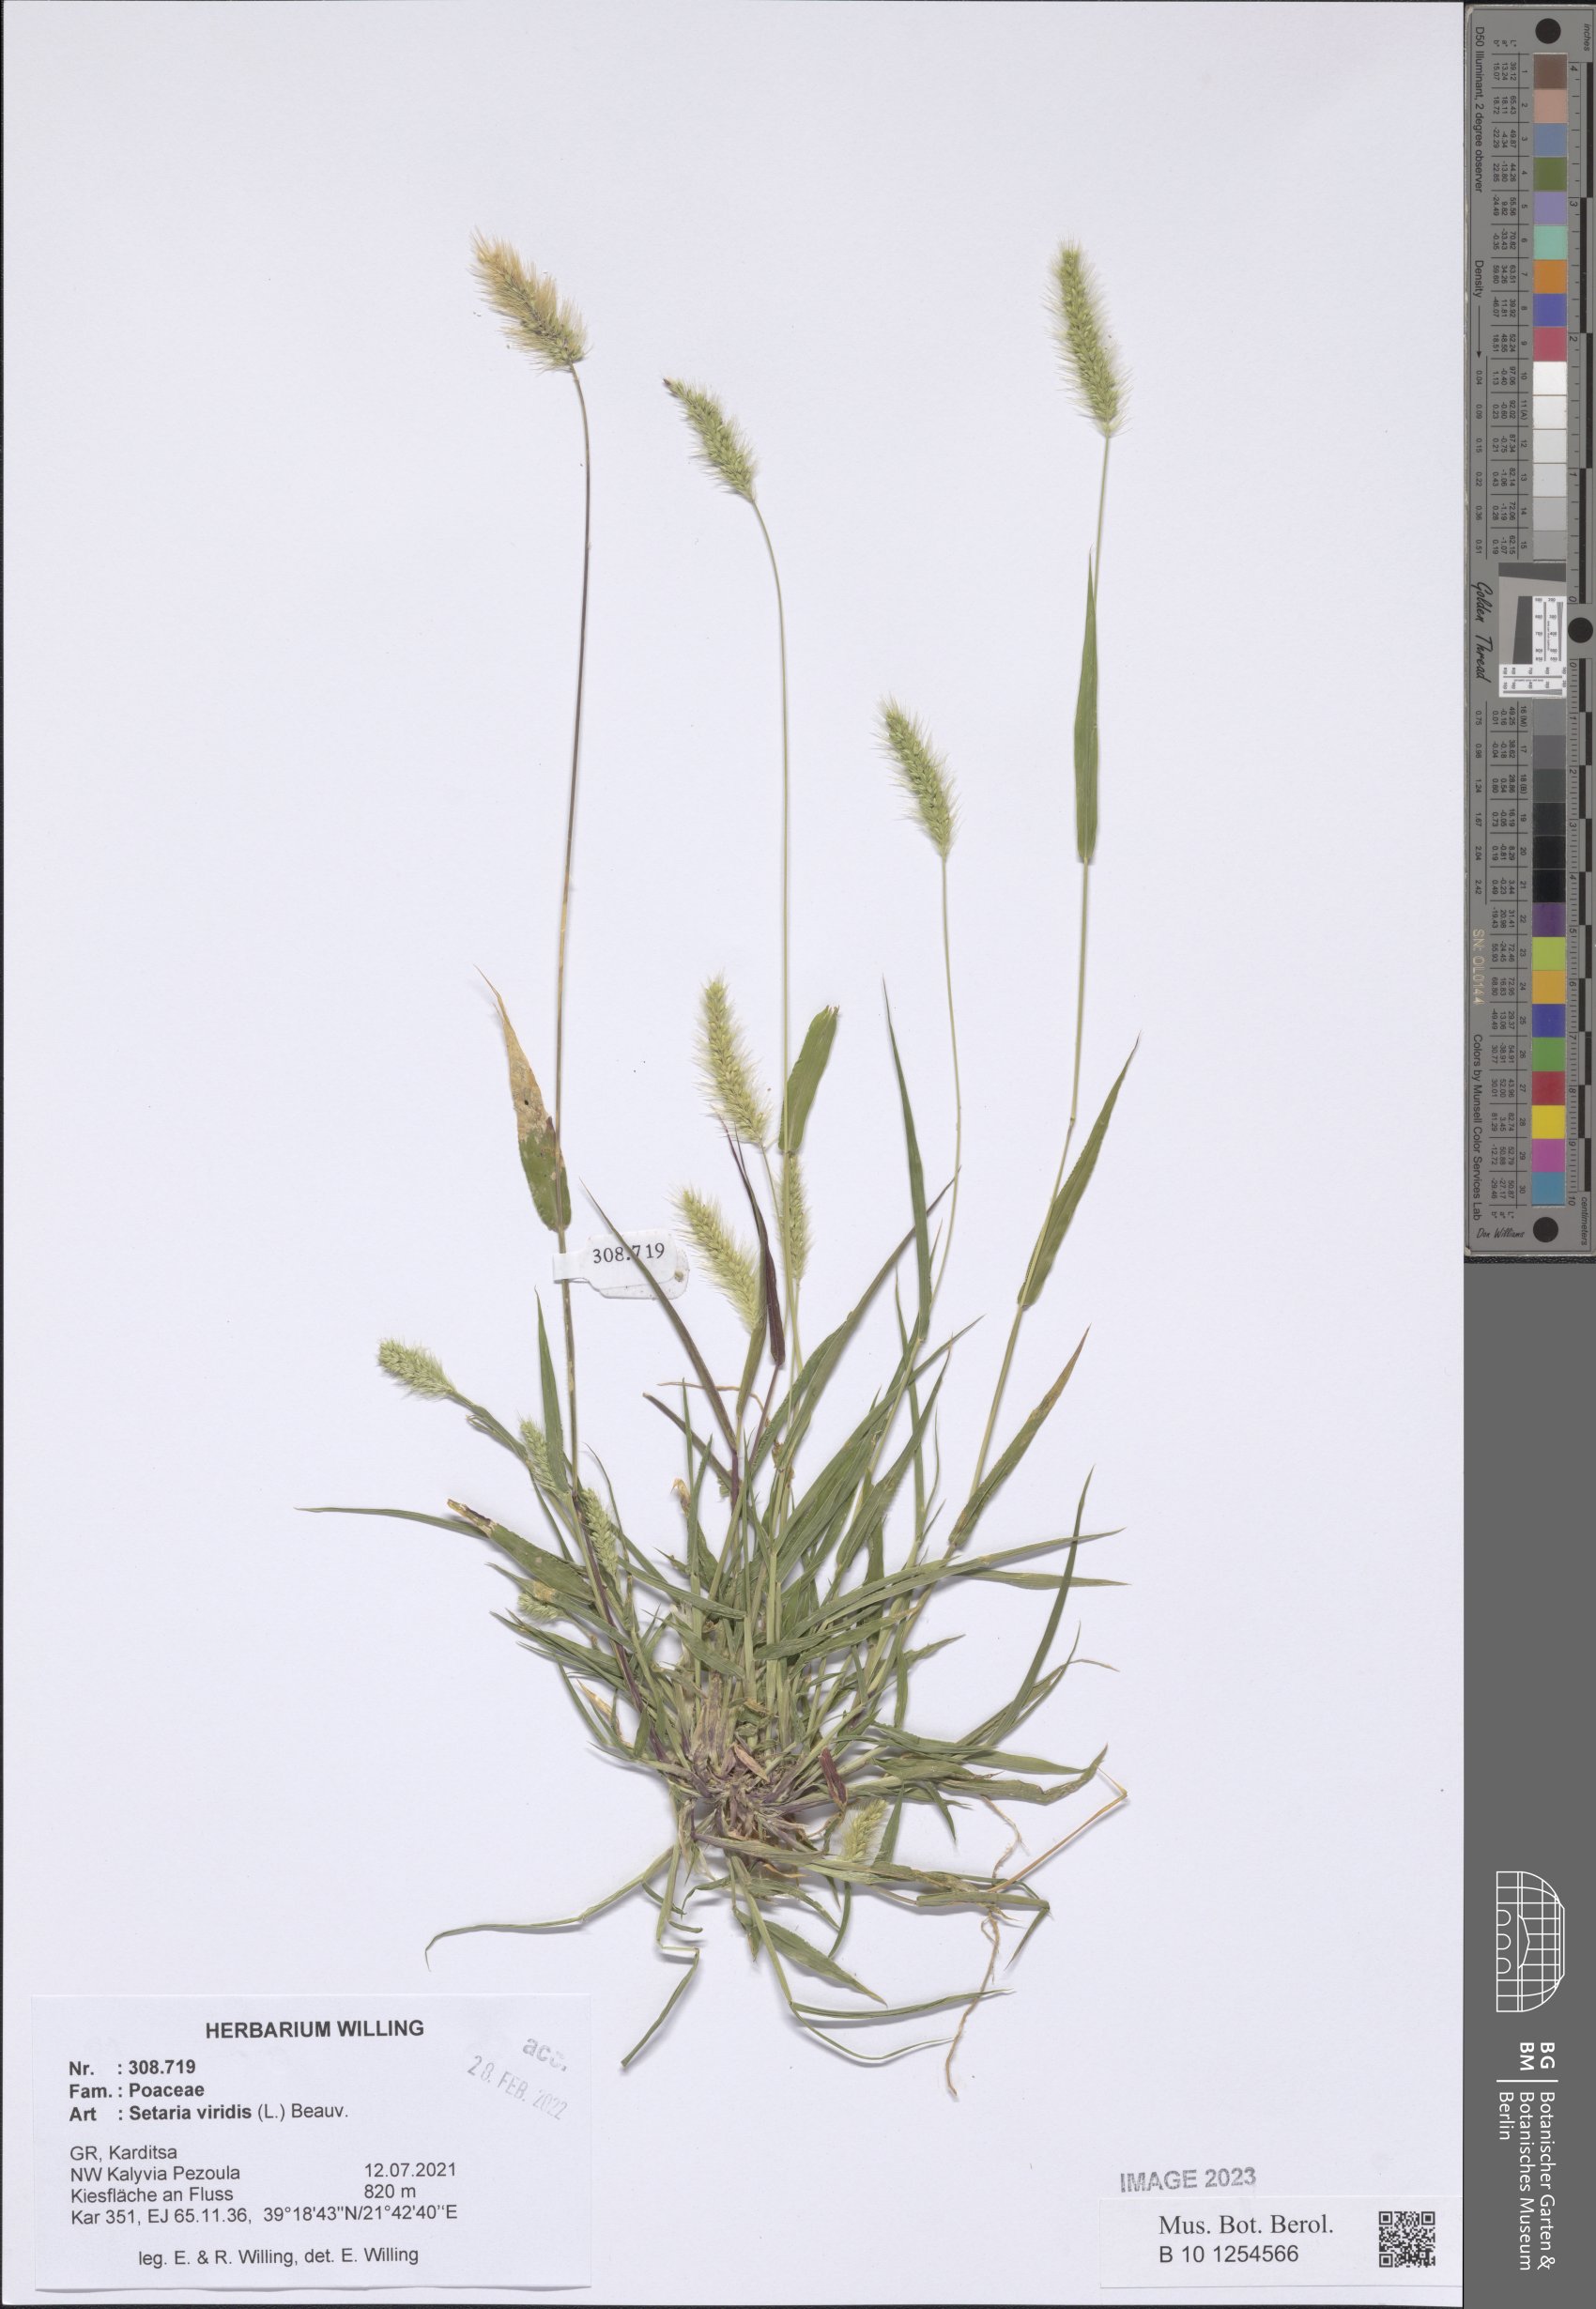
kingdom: Plantae
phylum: Tracheophyta
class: Liliopsida
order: Poales
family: Poaceae
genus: Setaria
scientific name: Setaria viridis
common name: Green bristlegrass
